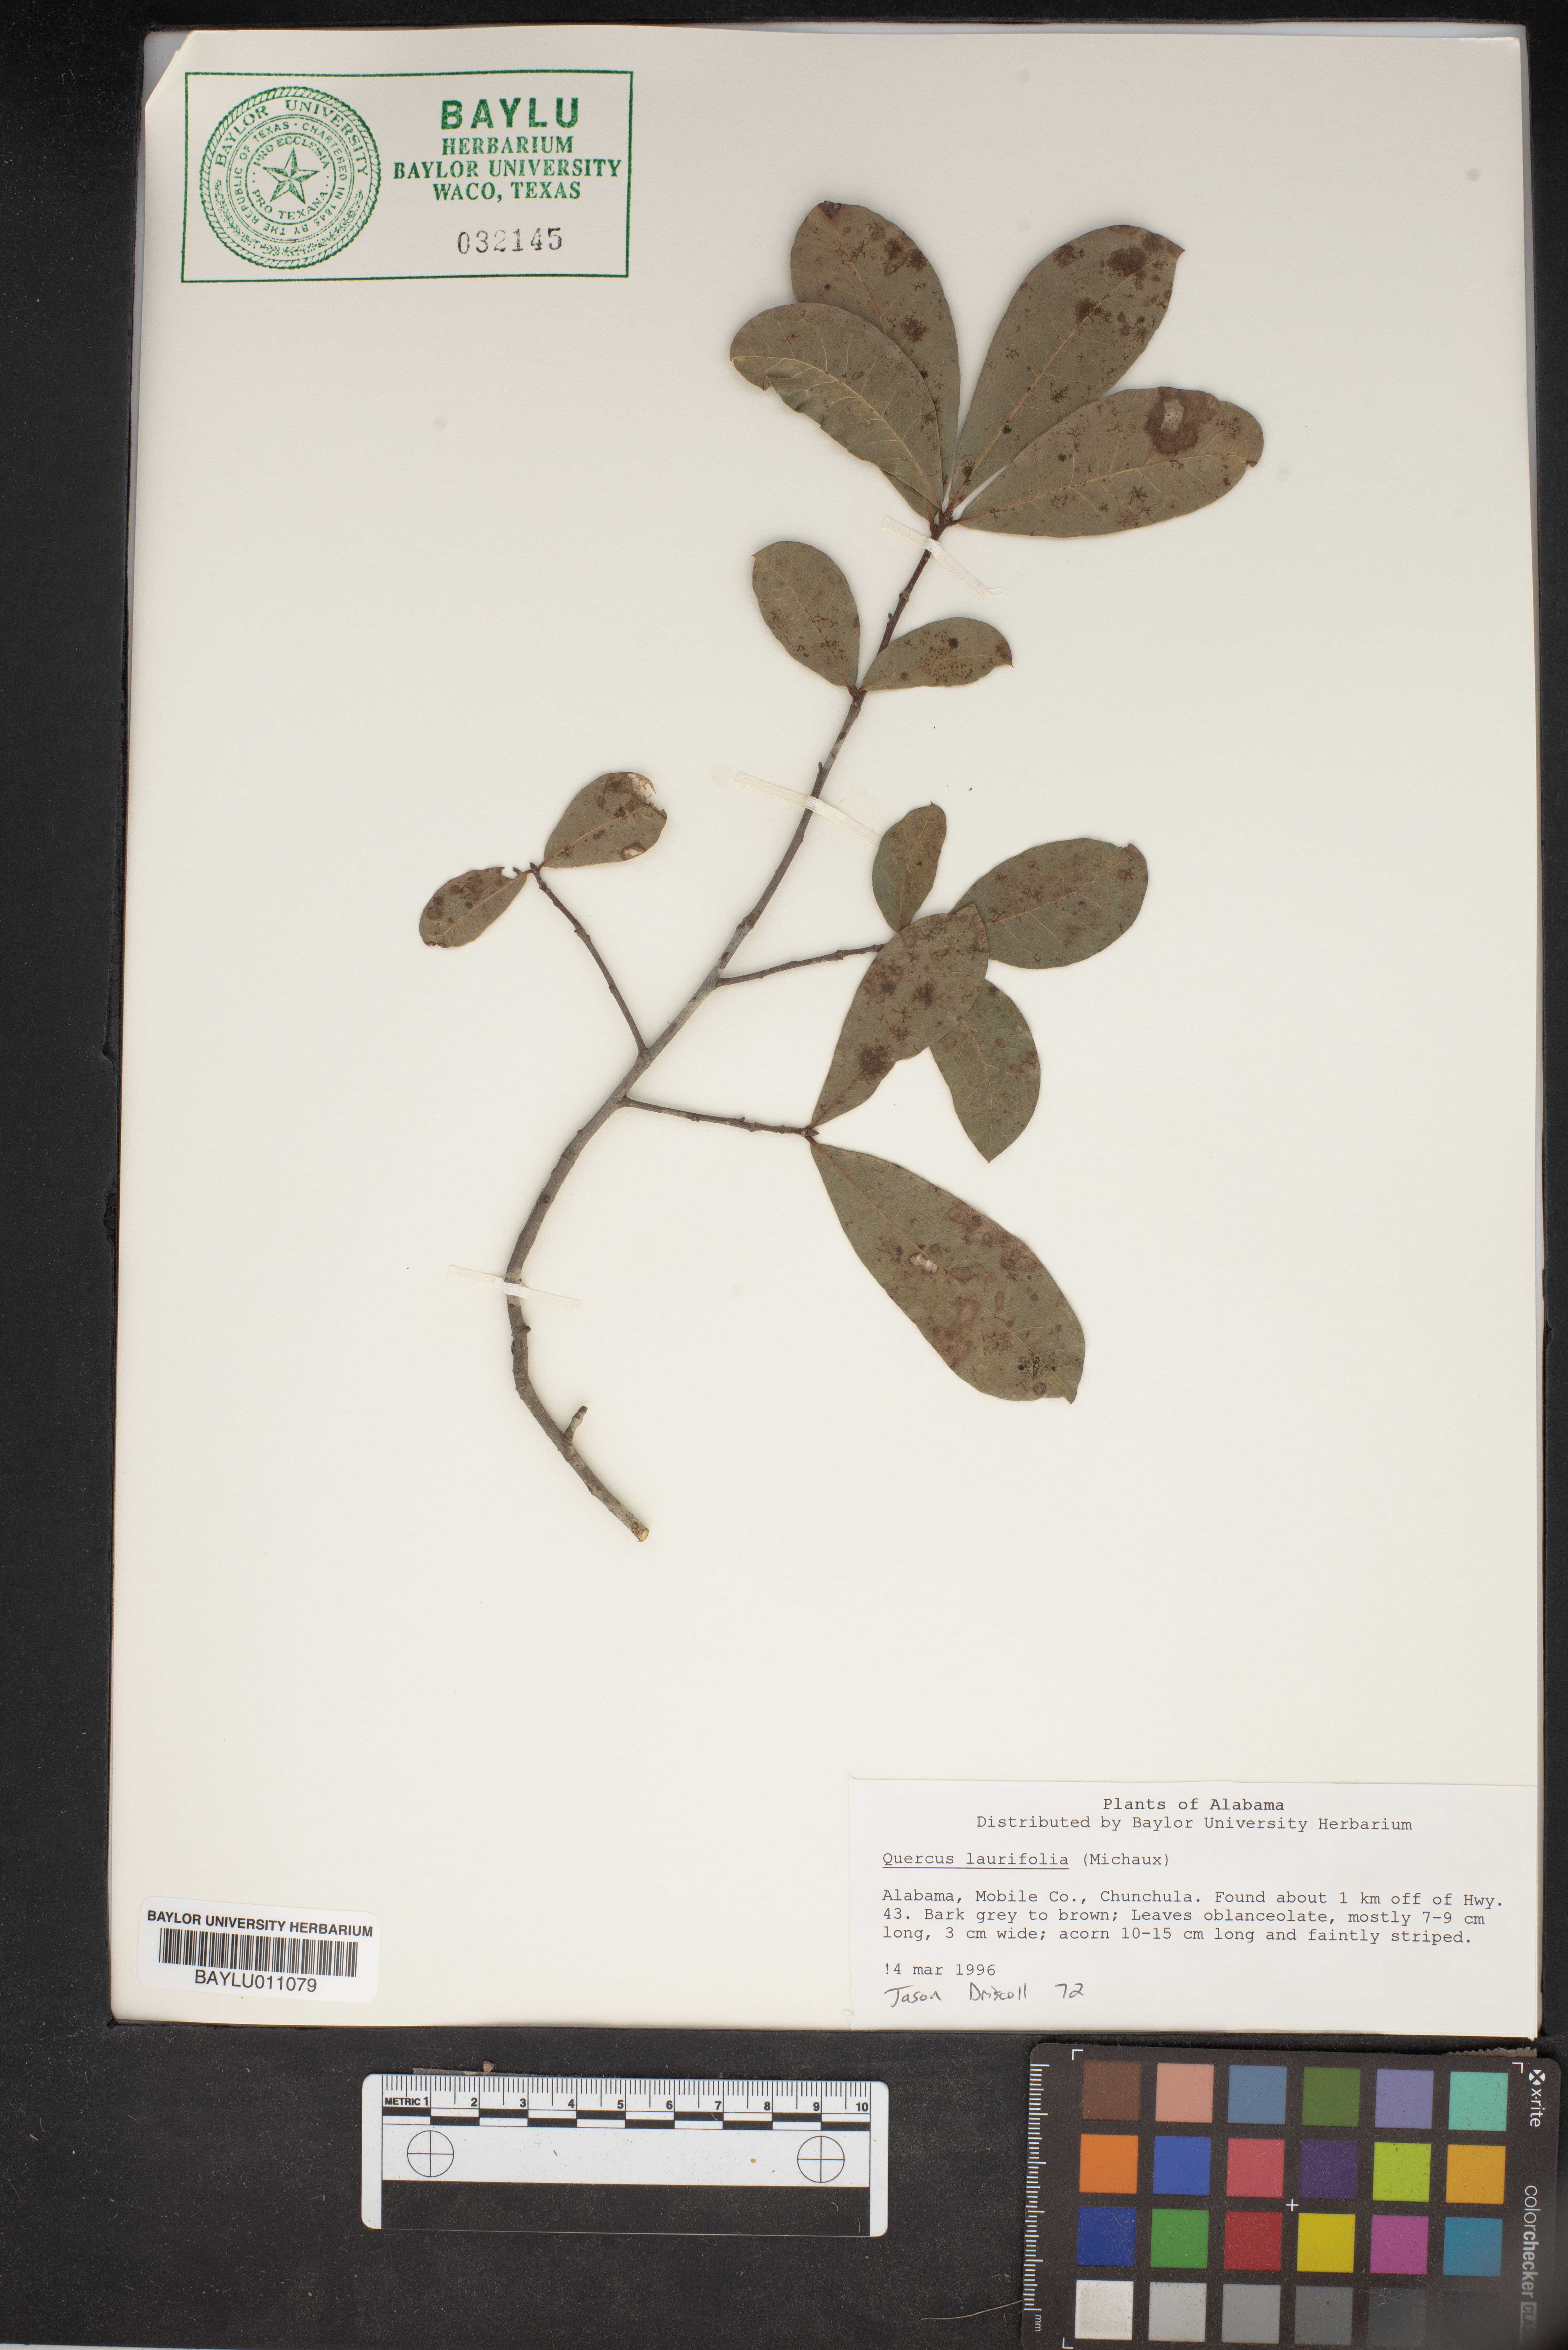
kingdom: Plantae
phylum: Tracheophyta
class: Magnoliopsida
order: Fagales
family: Fagaceae
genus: Quercus
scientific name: Quercus laurifolia
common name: Swamp laurel oak
